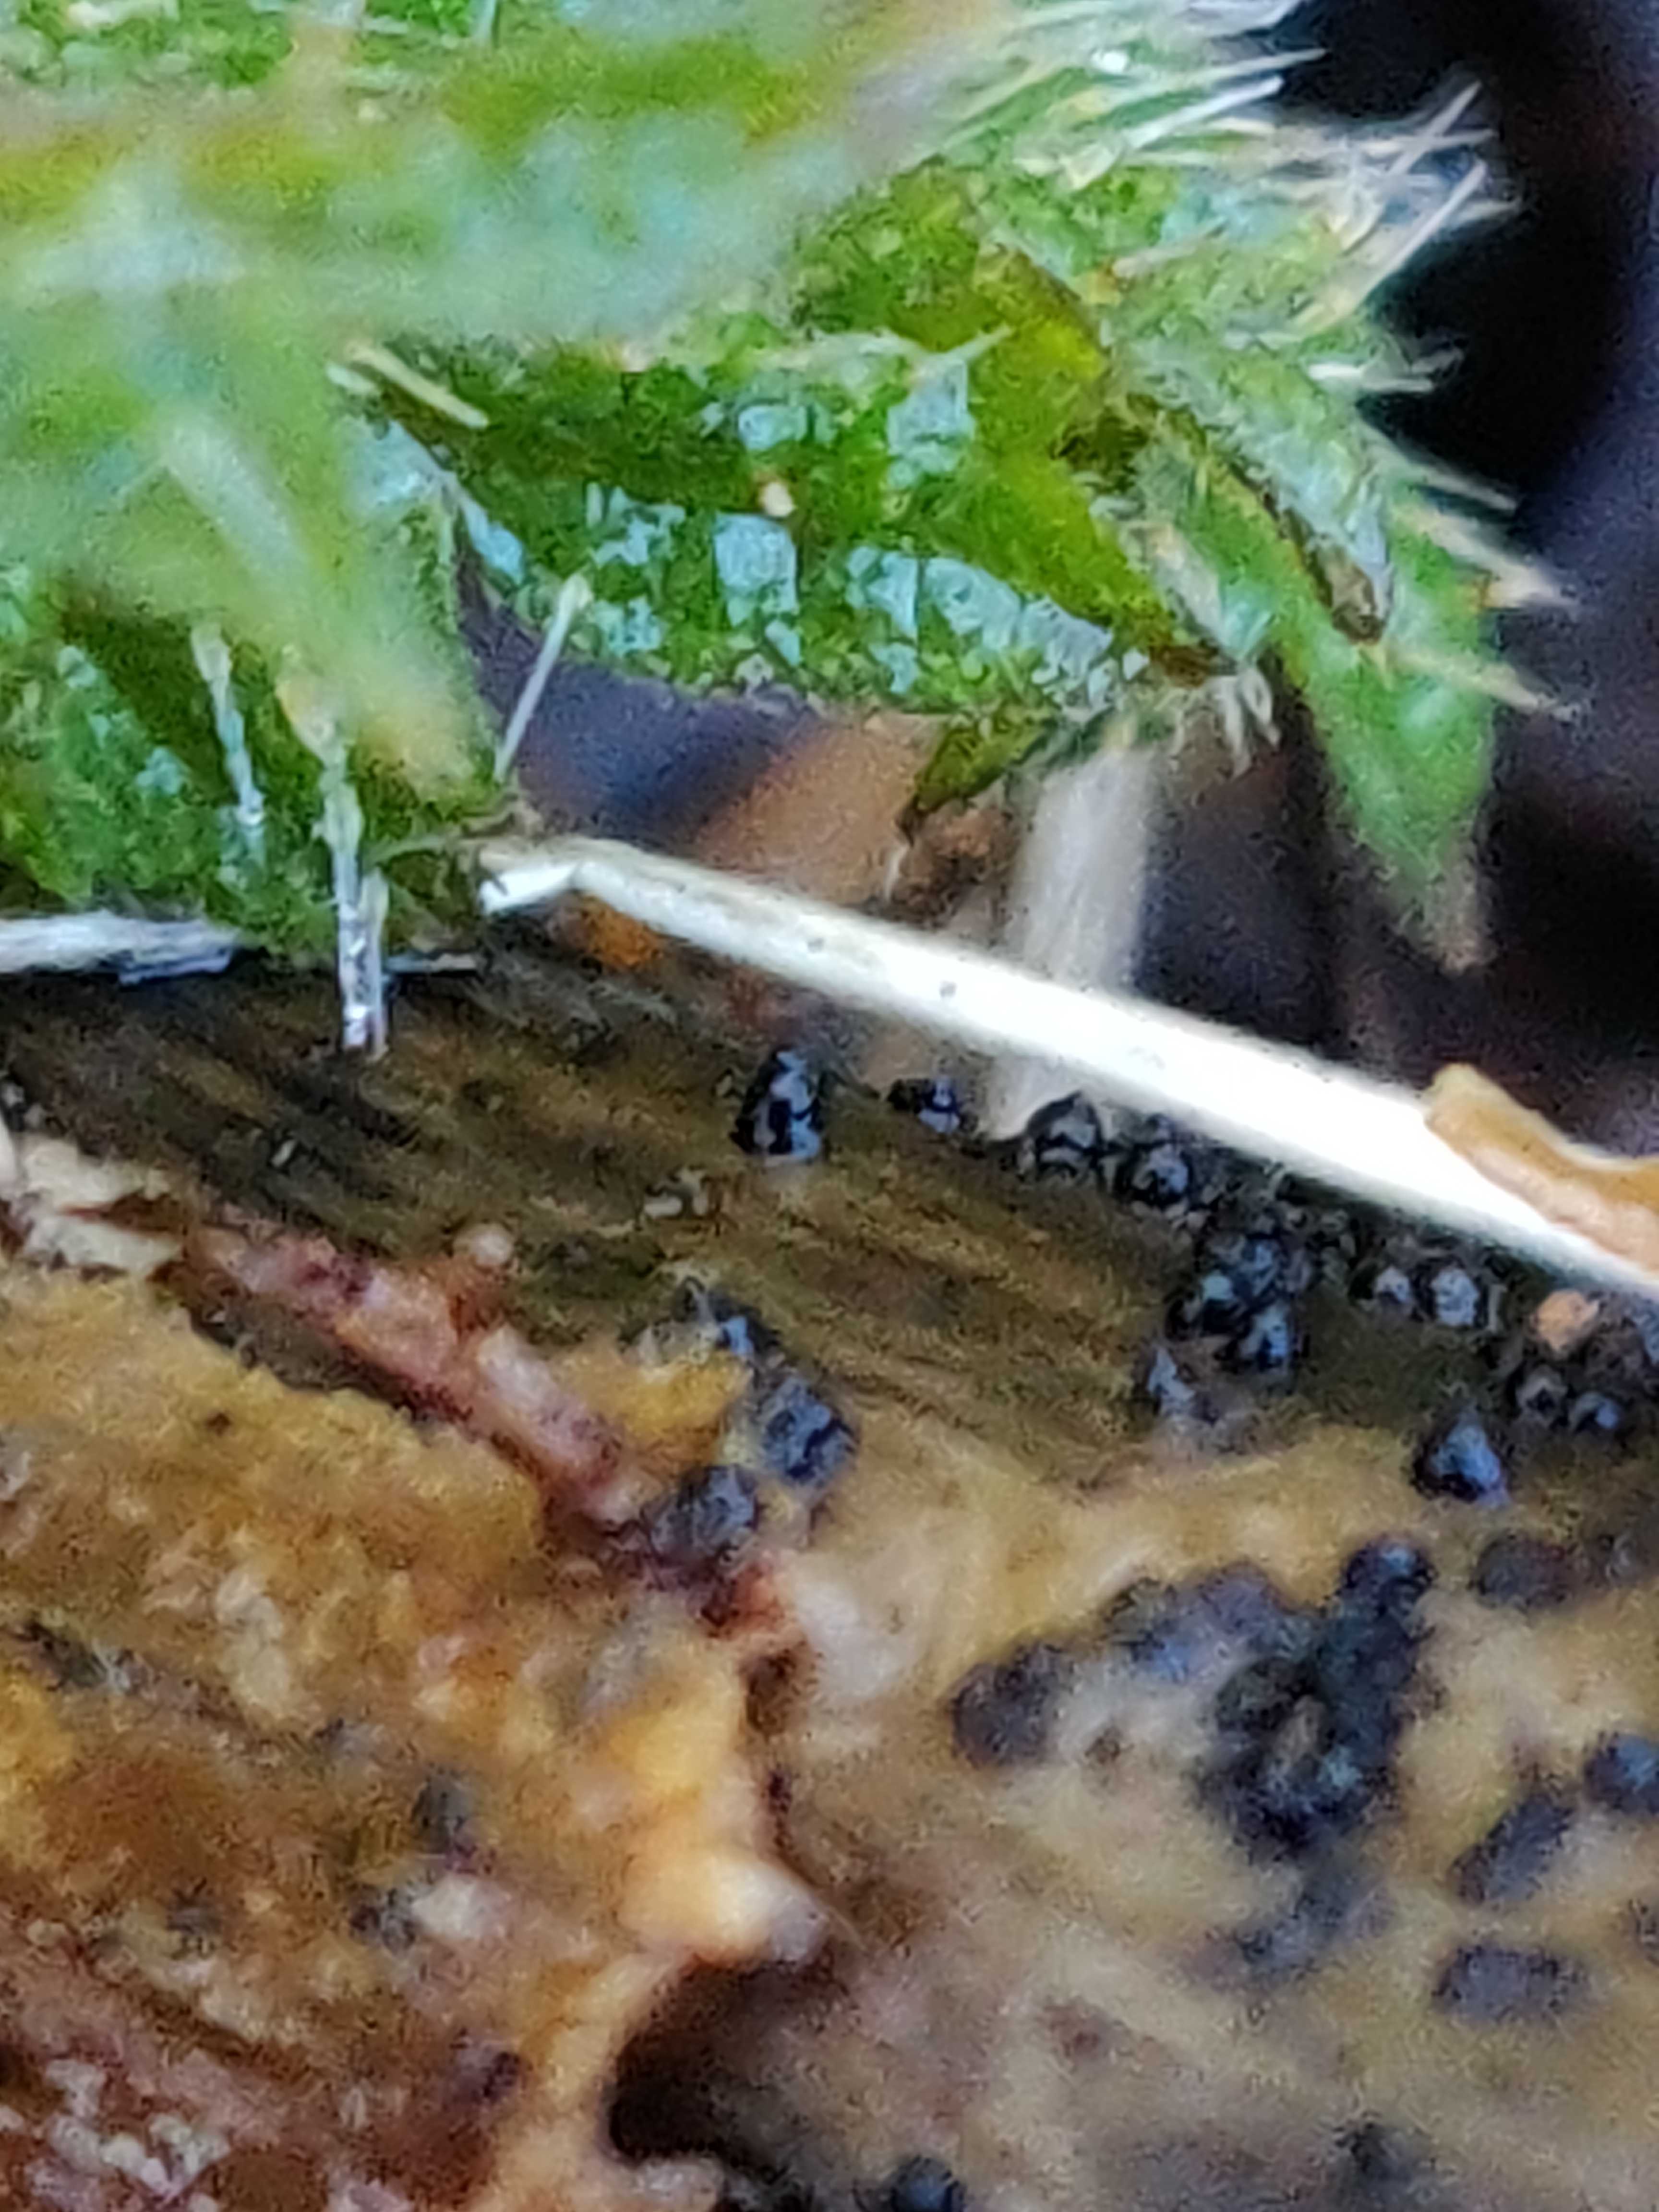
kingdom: Fungi
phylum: Ascomycota
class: Dothideomycetes
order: Pleosporales
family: Leptosphaeriaceae
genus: Leptosphaeria
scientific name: Leptosphaeria
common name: kulkegle
